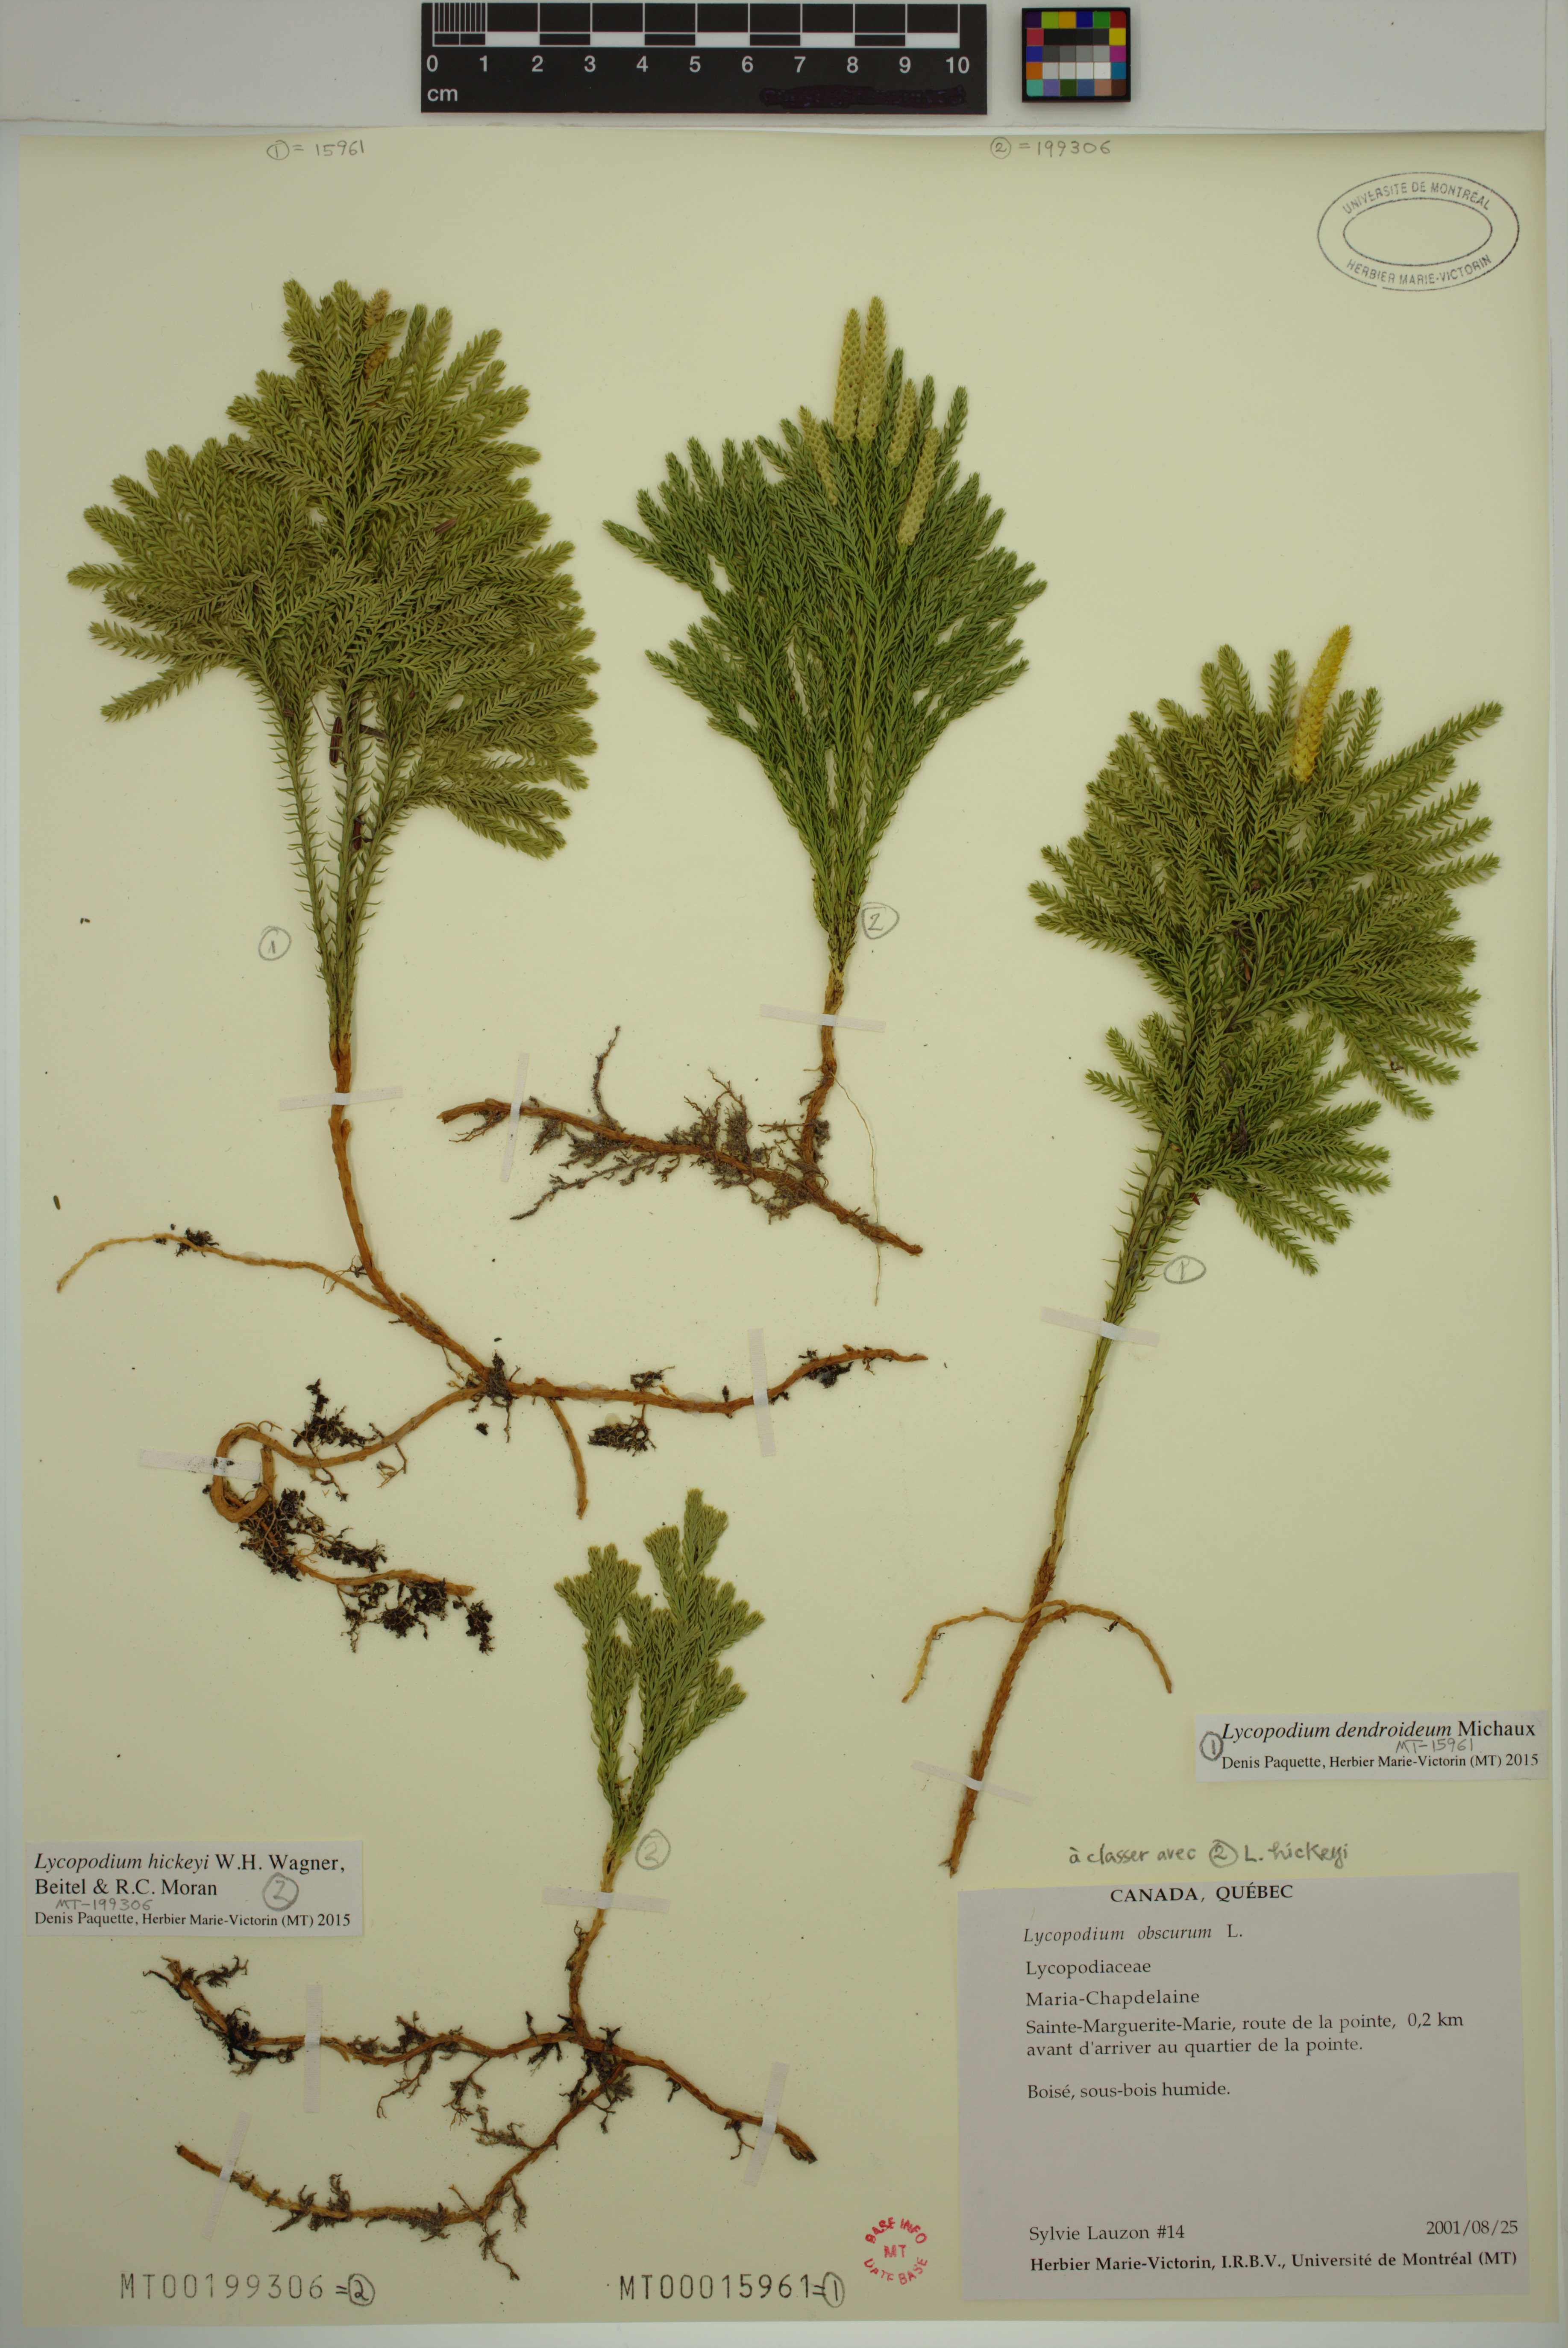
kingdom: Plantae
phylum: Tracheophyta
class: Lycopodiopsida
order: Lycopodiales
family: Lycopodiaceae
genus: Dendrolycopodium
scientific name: Dendrolycopodium dendroideum
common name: Northern tree-clubmoss
